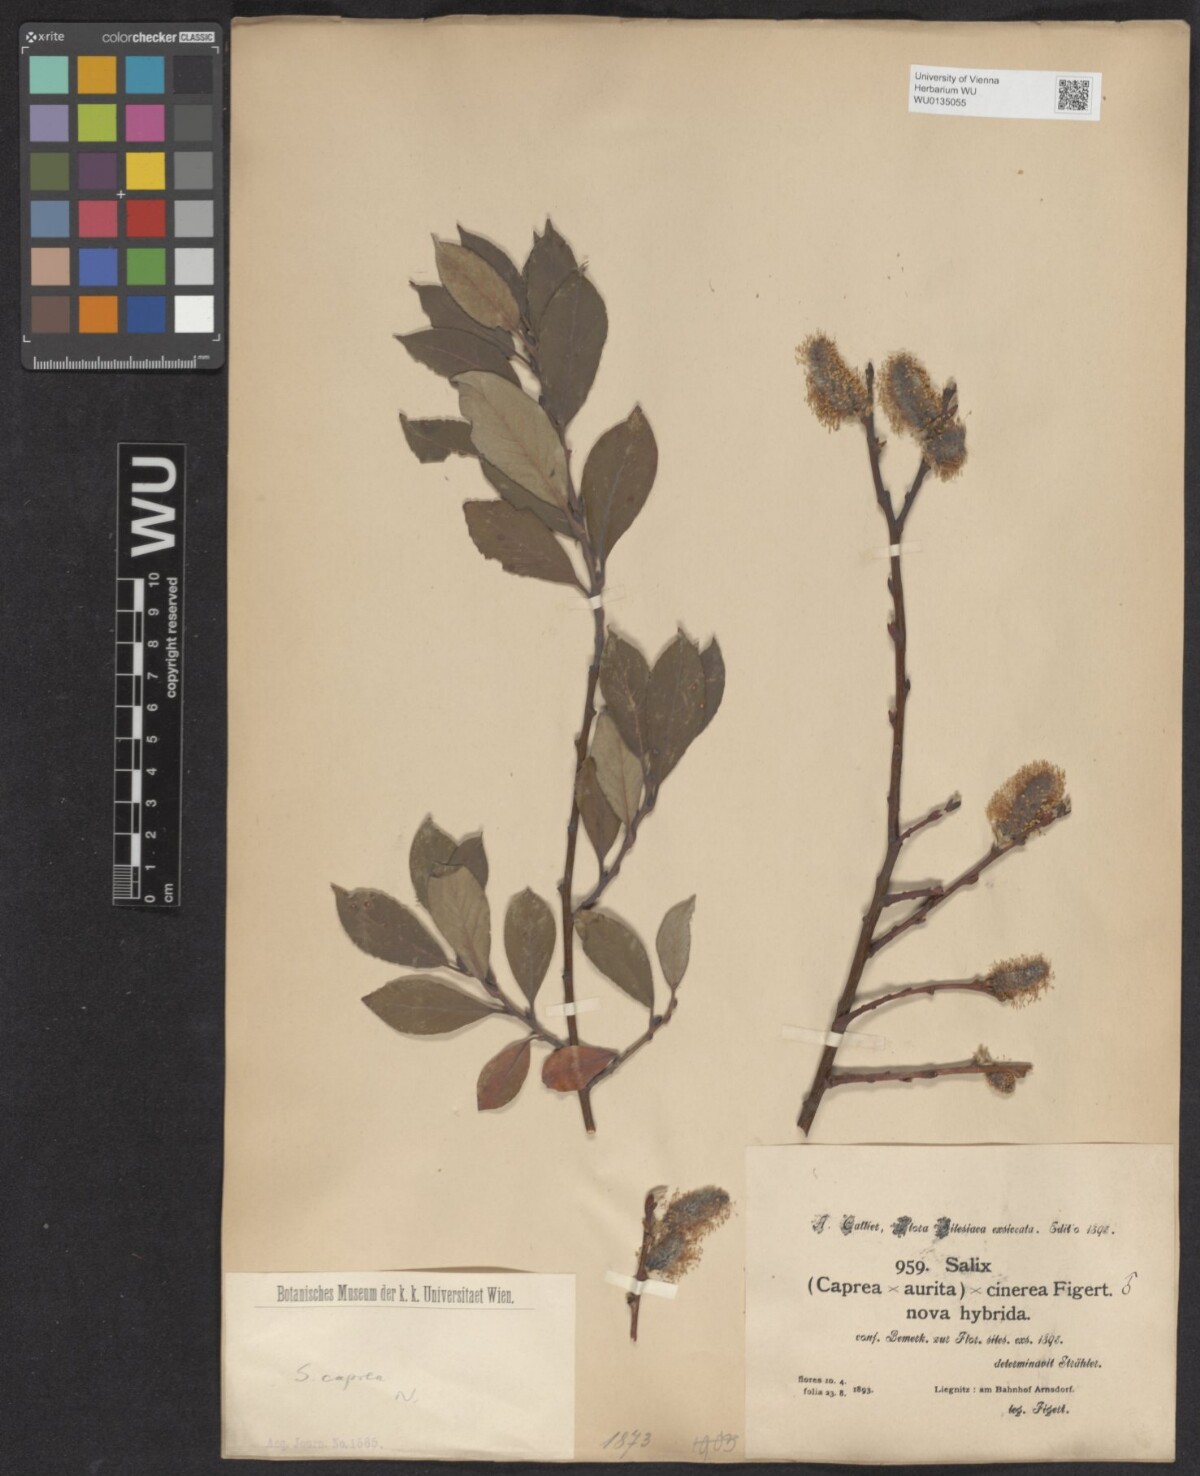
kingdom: Plantae
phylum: Tracheophyta
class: Magnoliopsida
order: Malpighiales
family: Salicaceae
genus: Salix
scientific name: Salix caprea
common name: Goat willow
